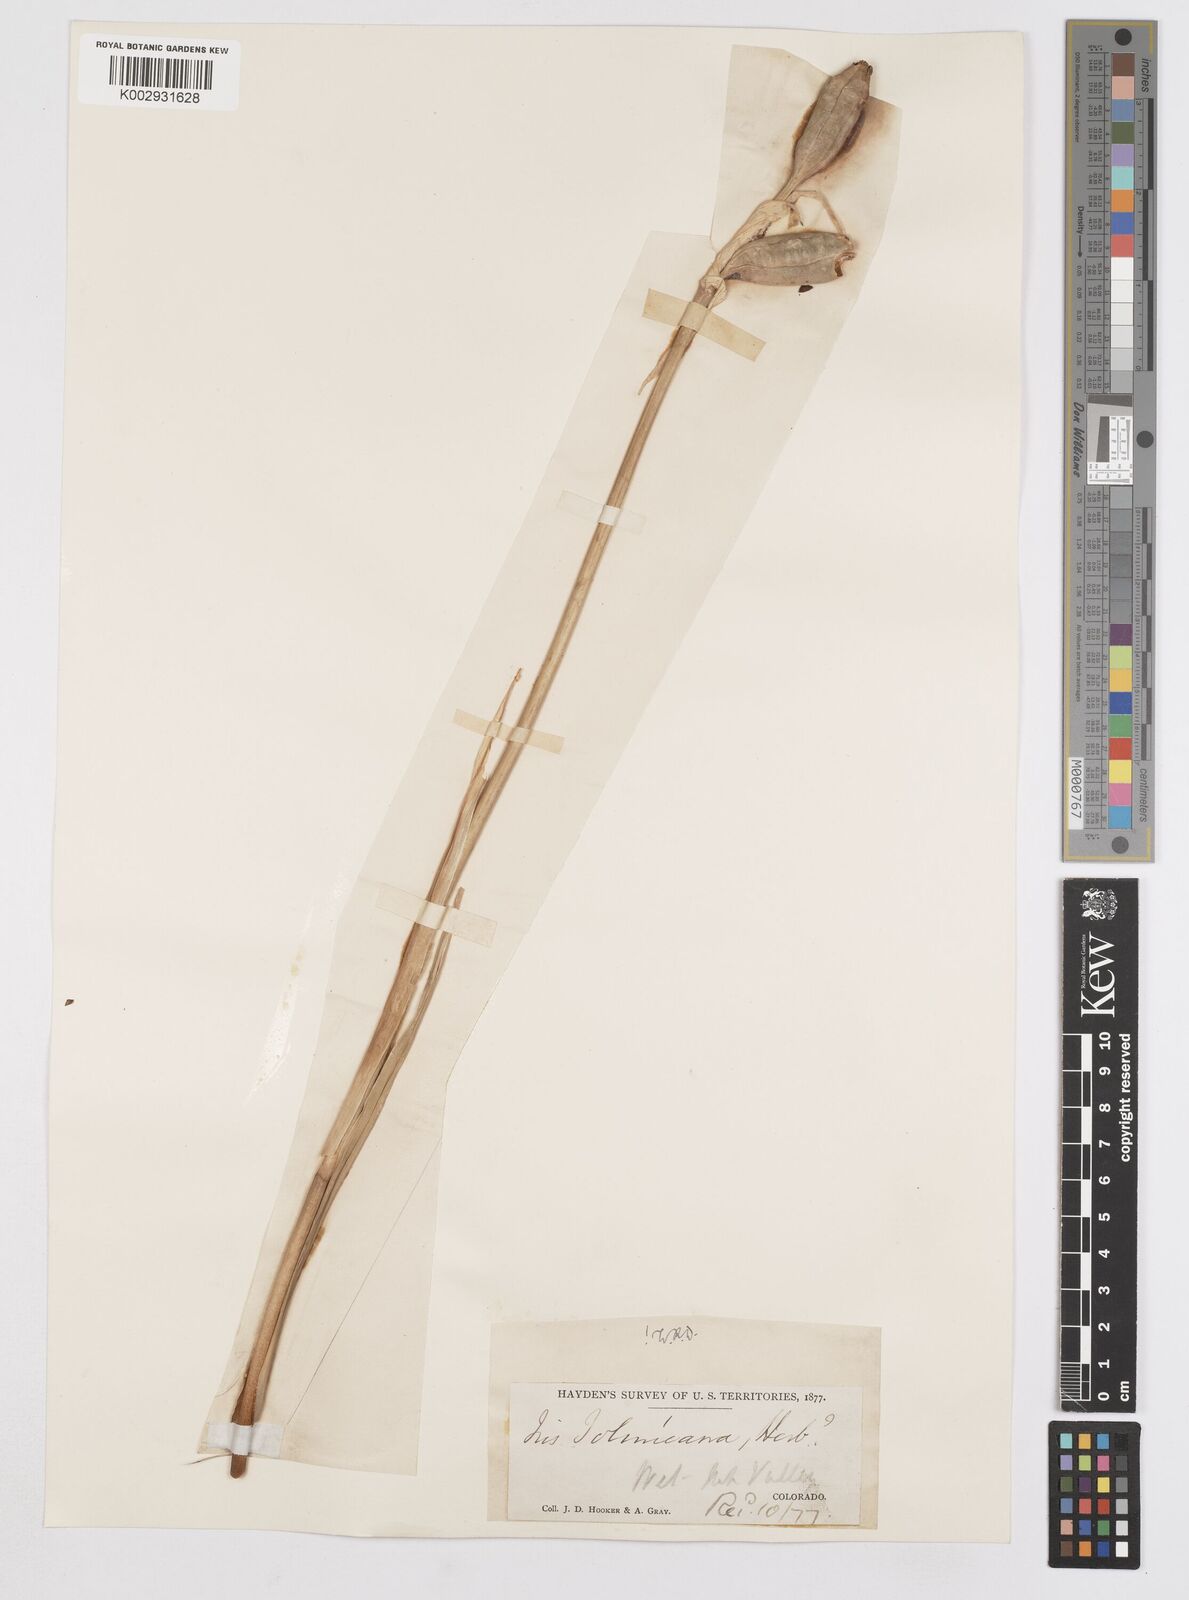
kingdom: Plantae
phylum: Tracheophyta
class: Liliopsida
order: Asparagales
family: Iridaceae
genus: Iris
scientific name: Iris missouriensis
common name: Rocky mountain iris
